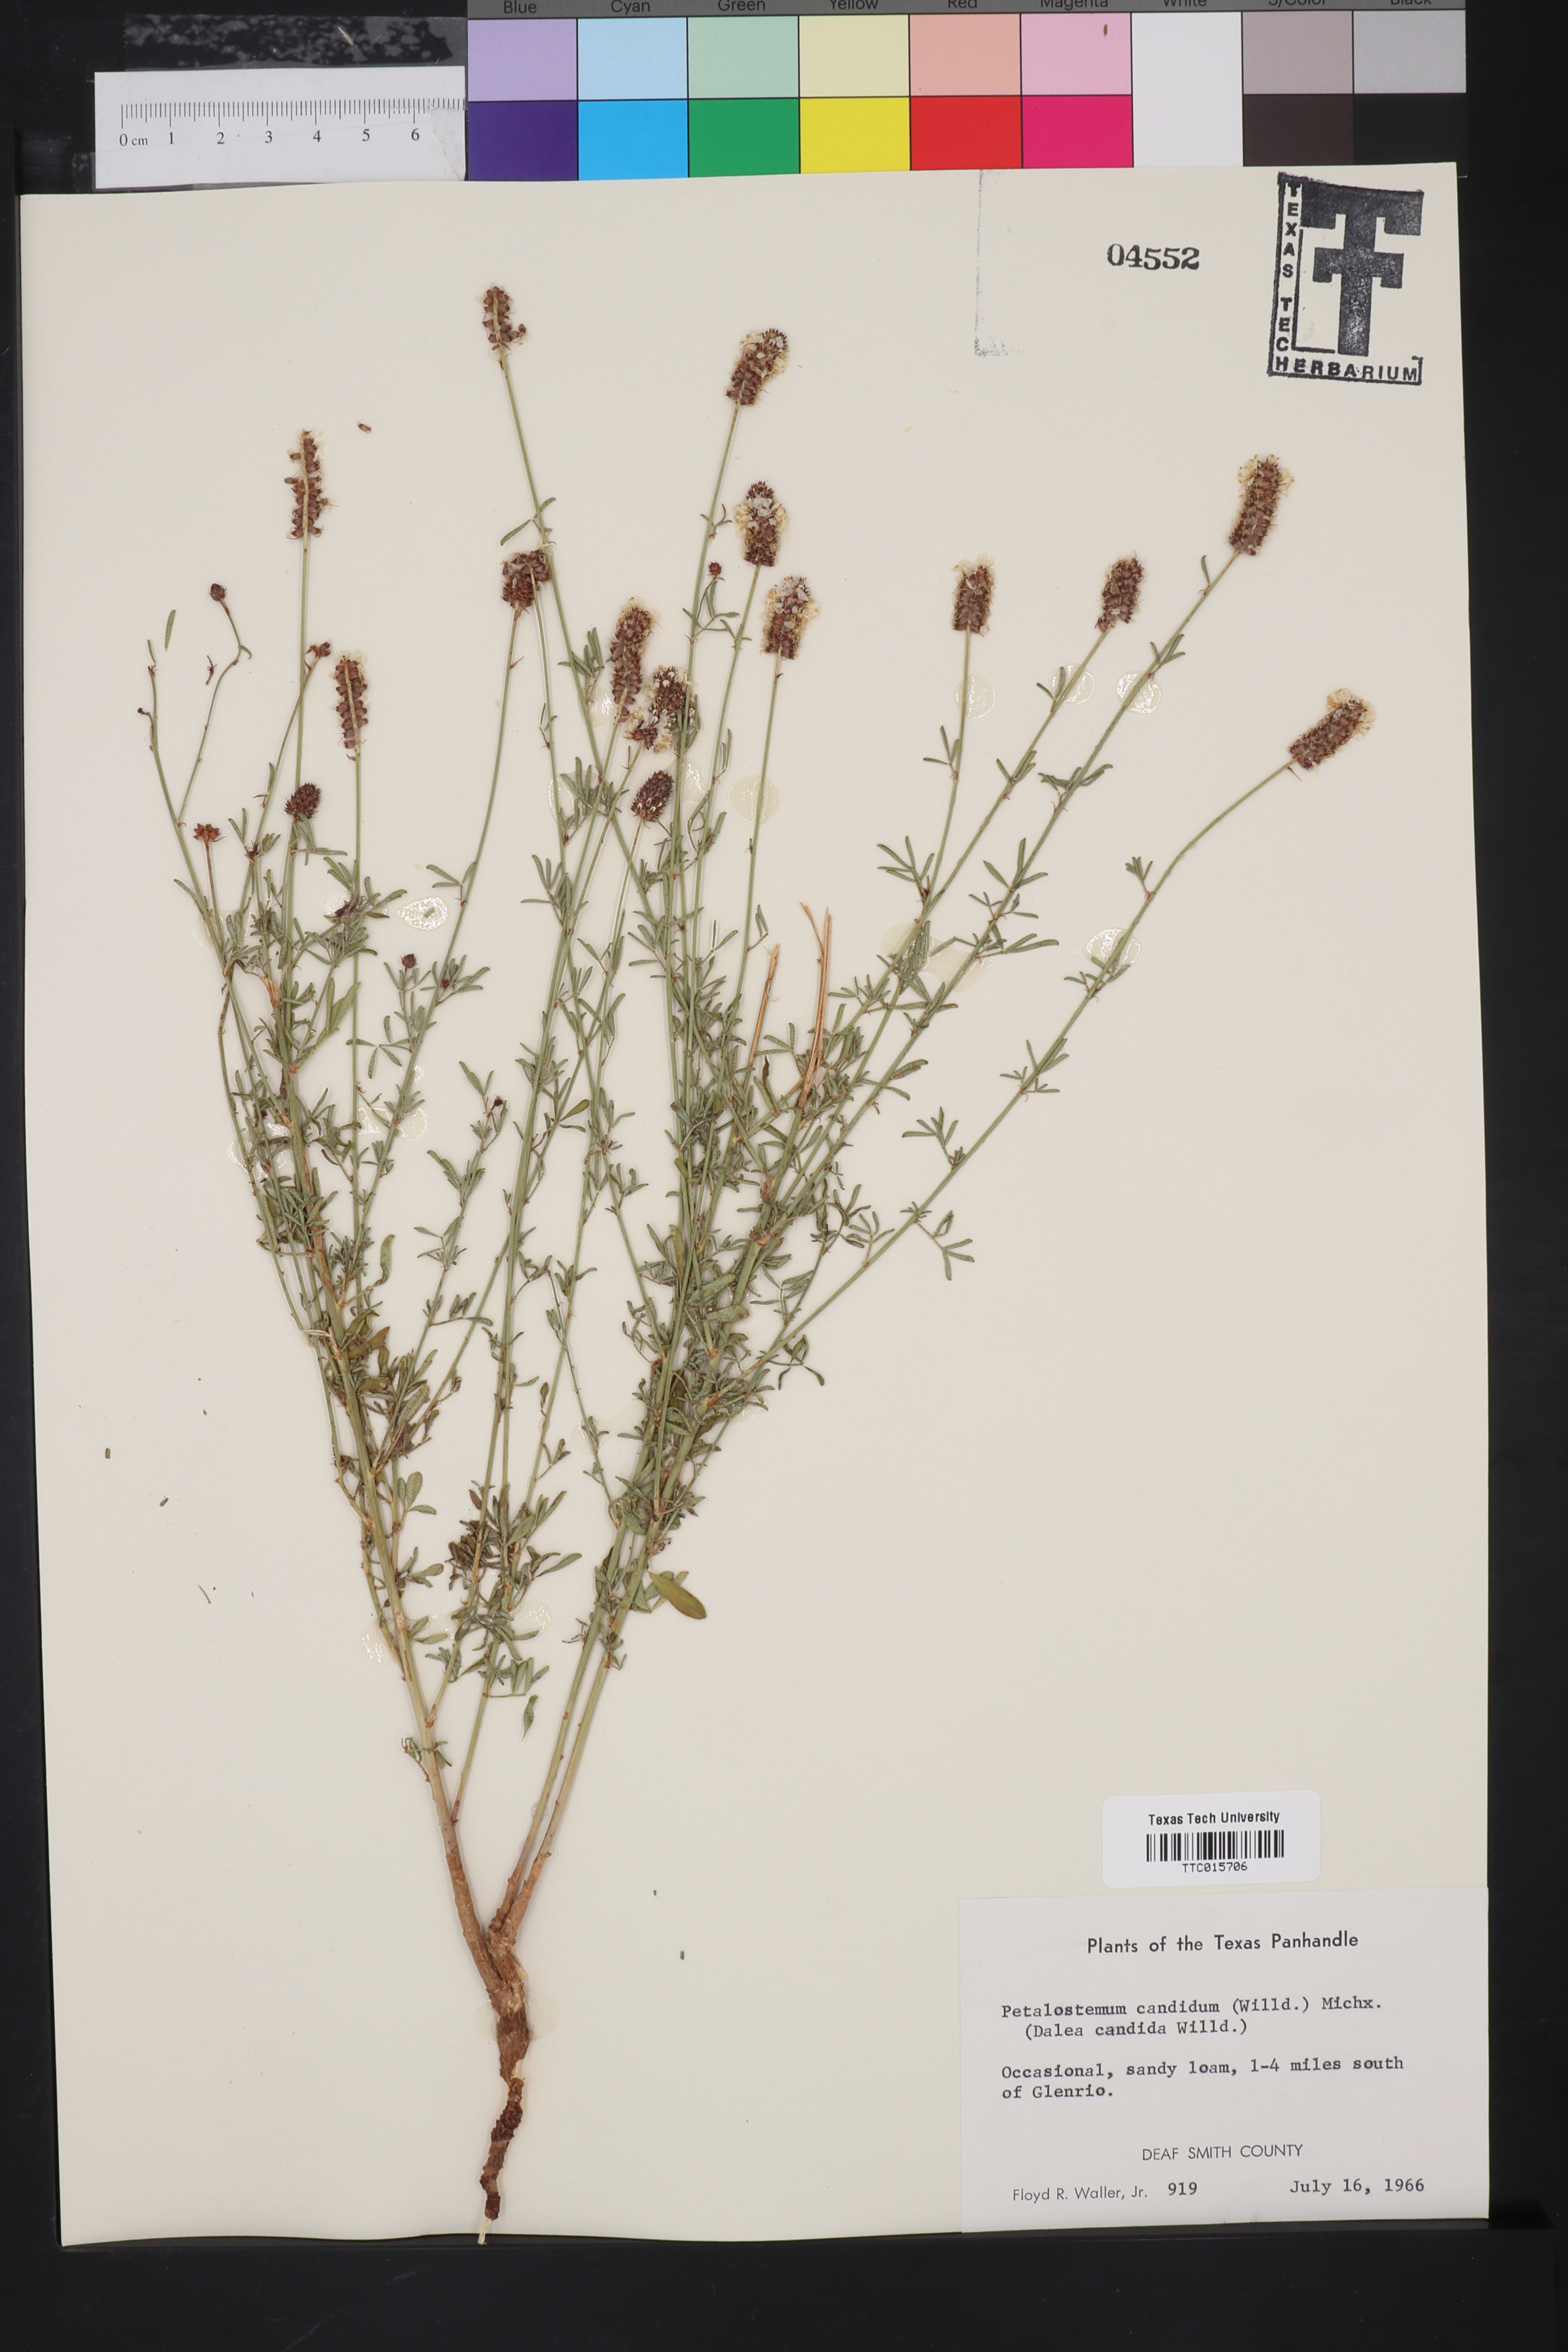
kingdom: Plantae
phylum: Tracheophyta
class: Magnoliopsida
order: Fabales
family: Fabaceae
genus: Petalostemum
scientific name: Petalostemum
